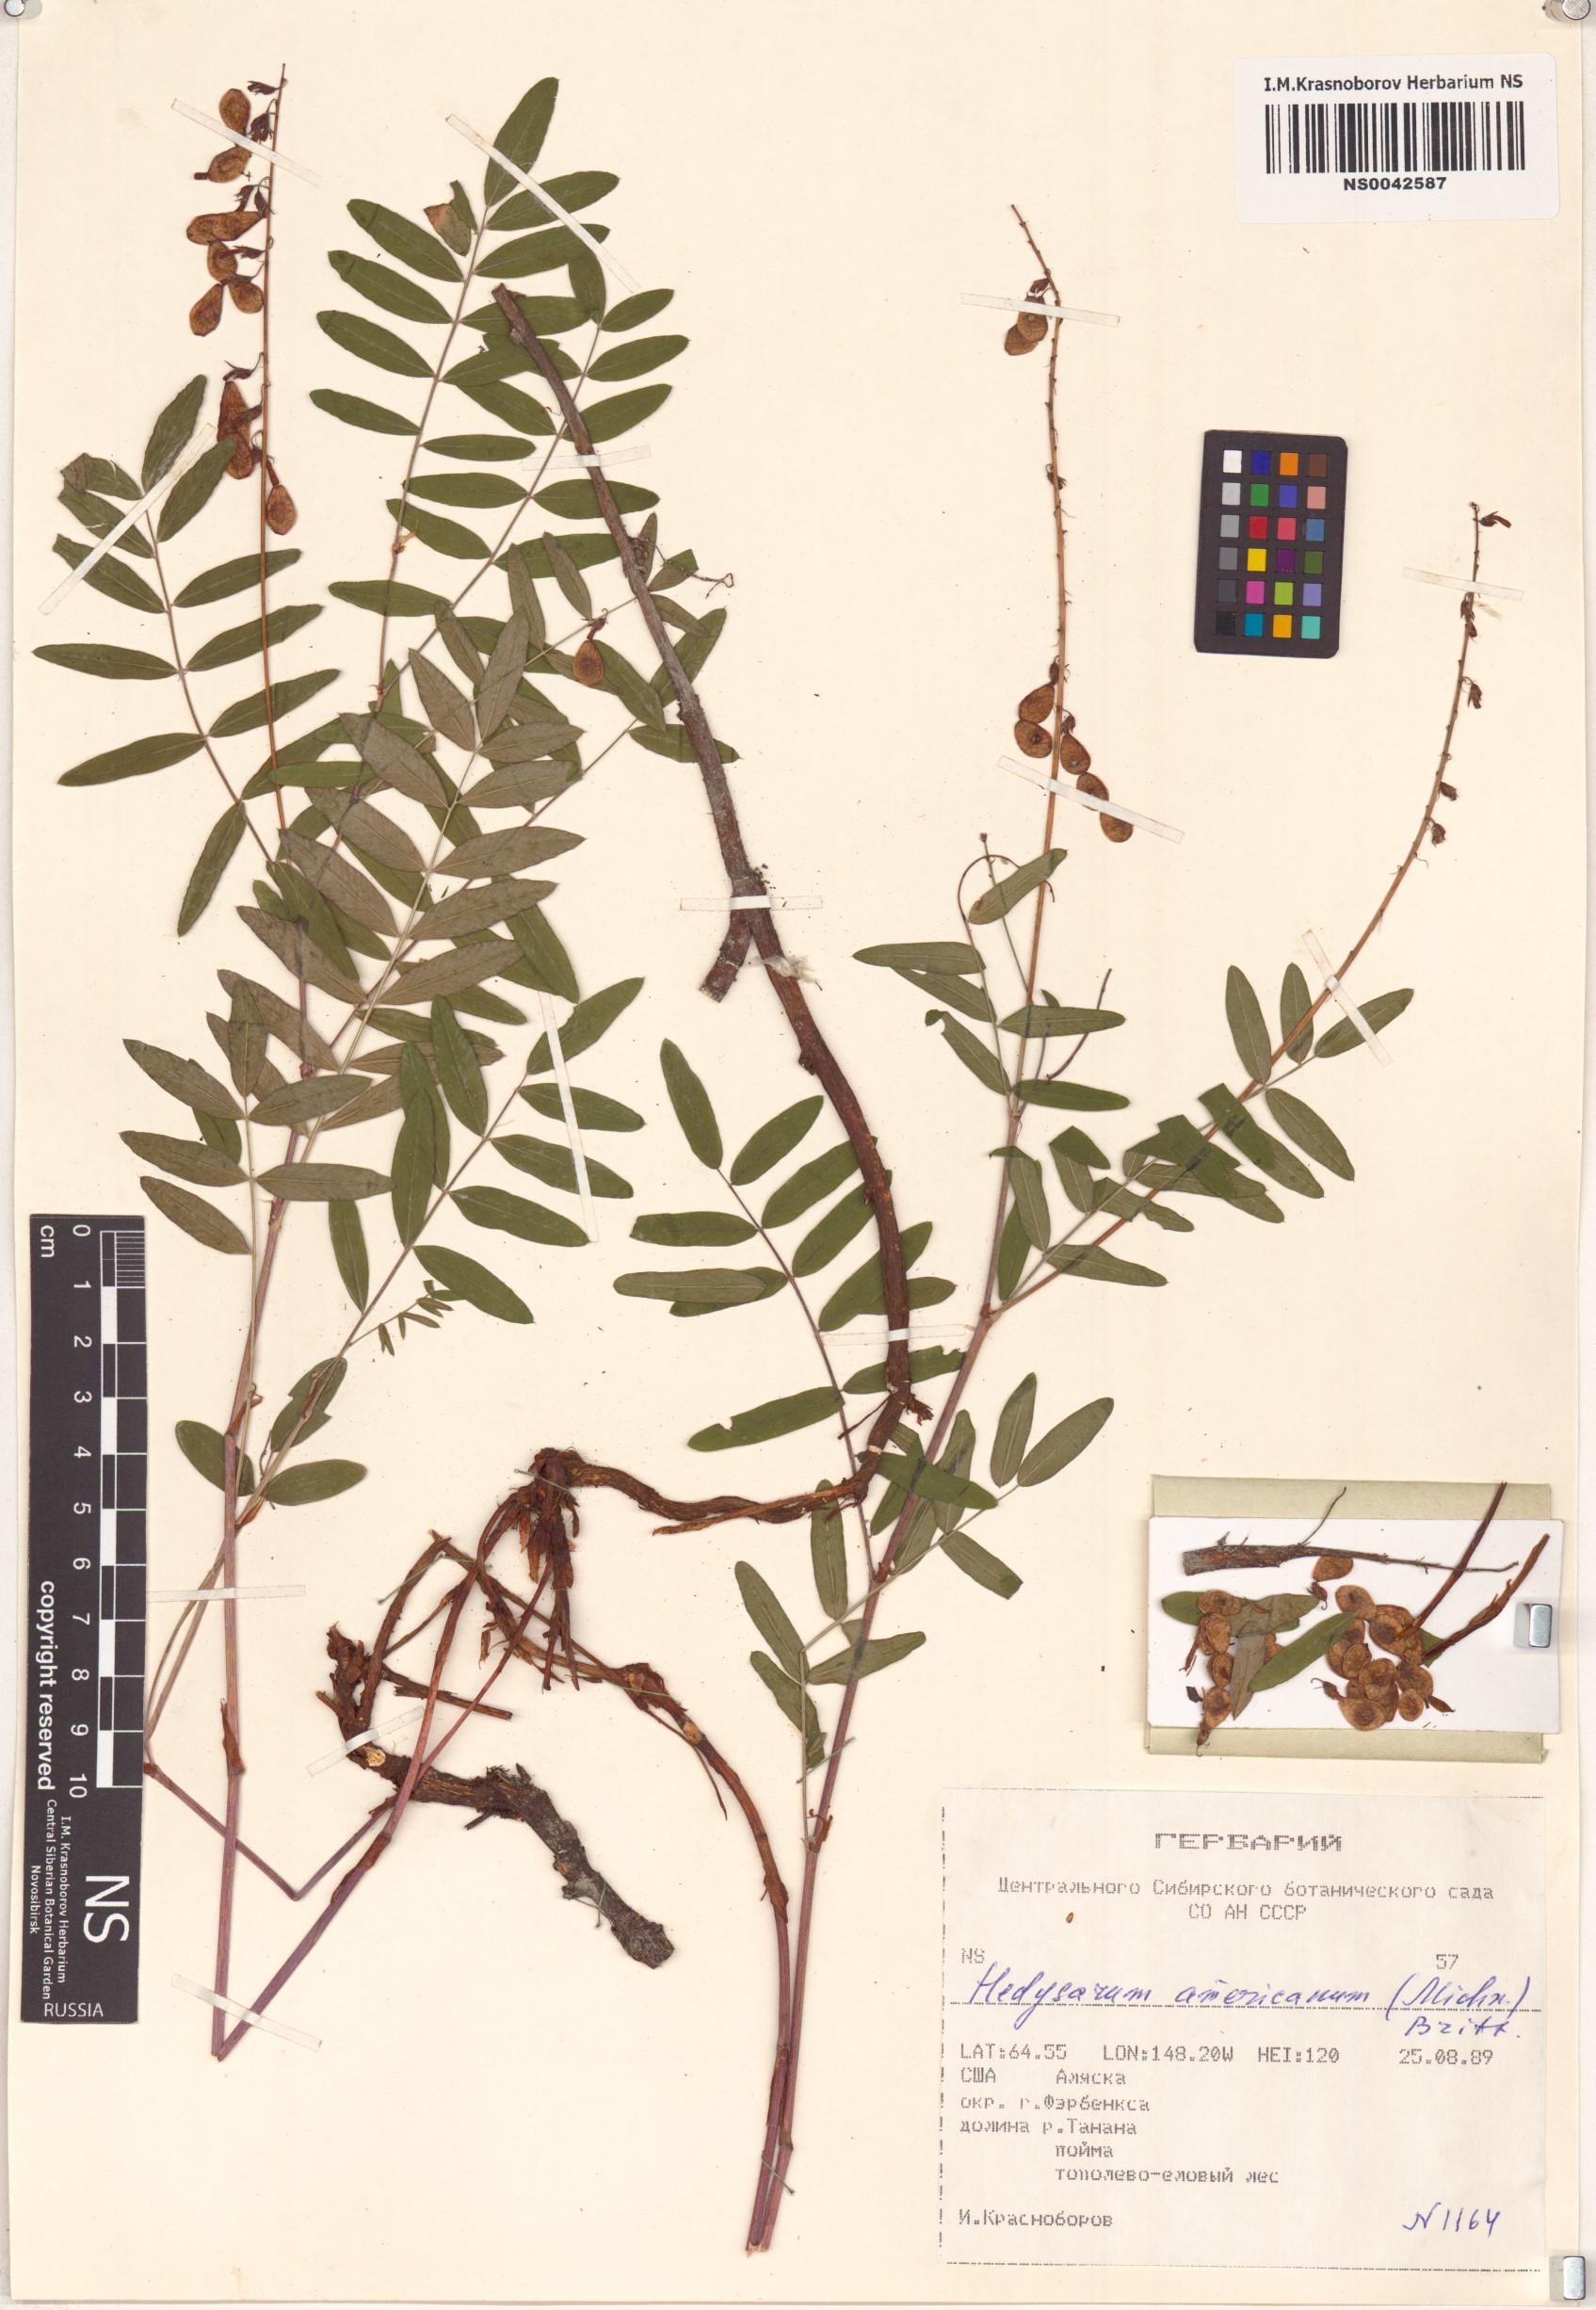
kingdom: Plantae
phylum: Tracheophyta
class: Magnoliopsida
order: Fabales
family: Fabaceae
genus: Hedysarum
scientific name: Hedysarum americanum
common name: Alpine hedysarum
